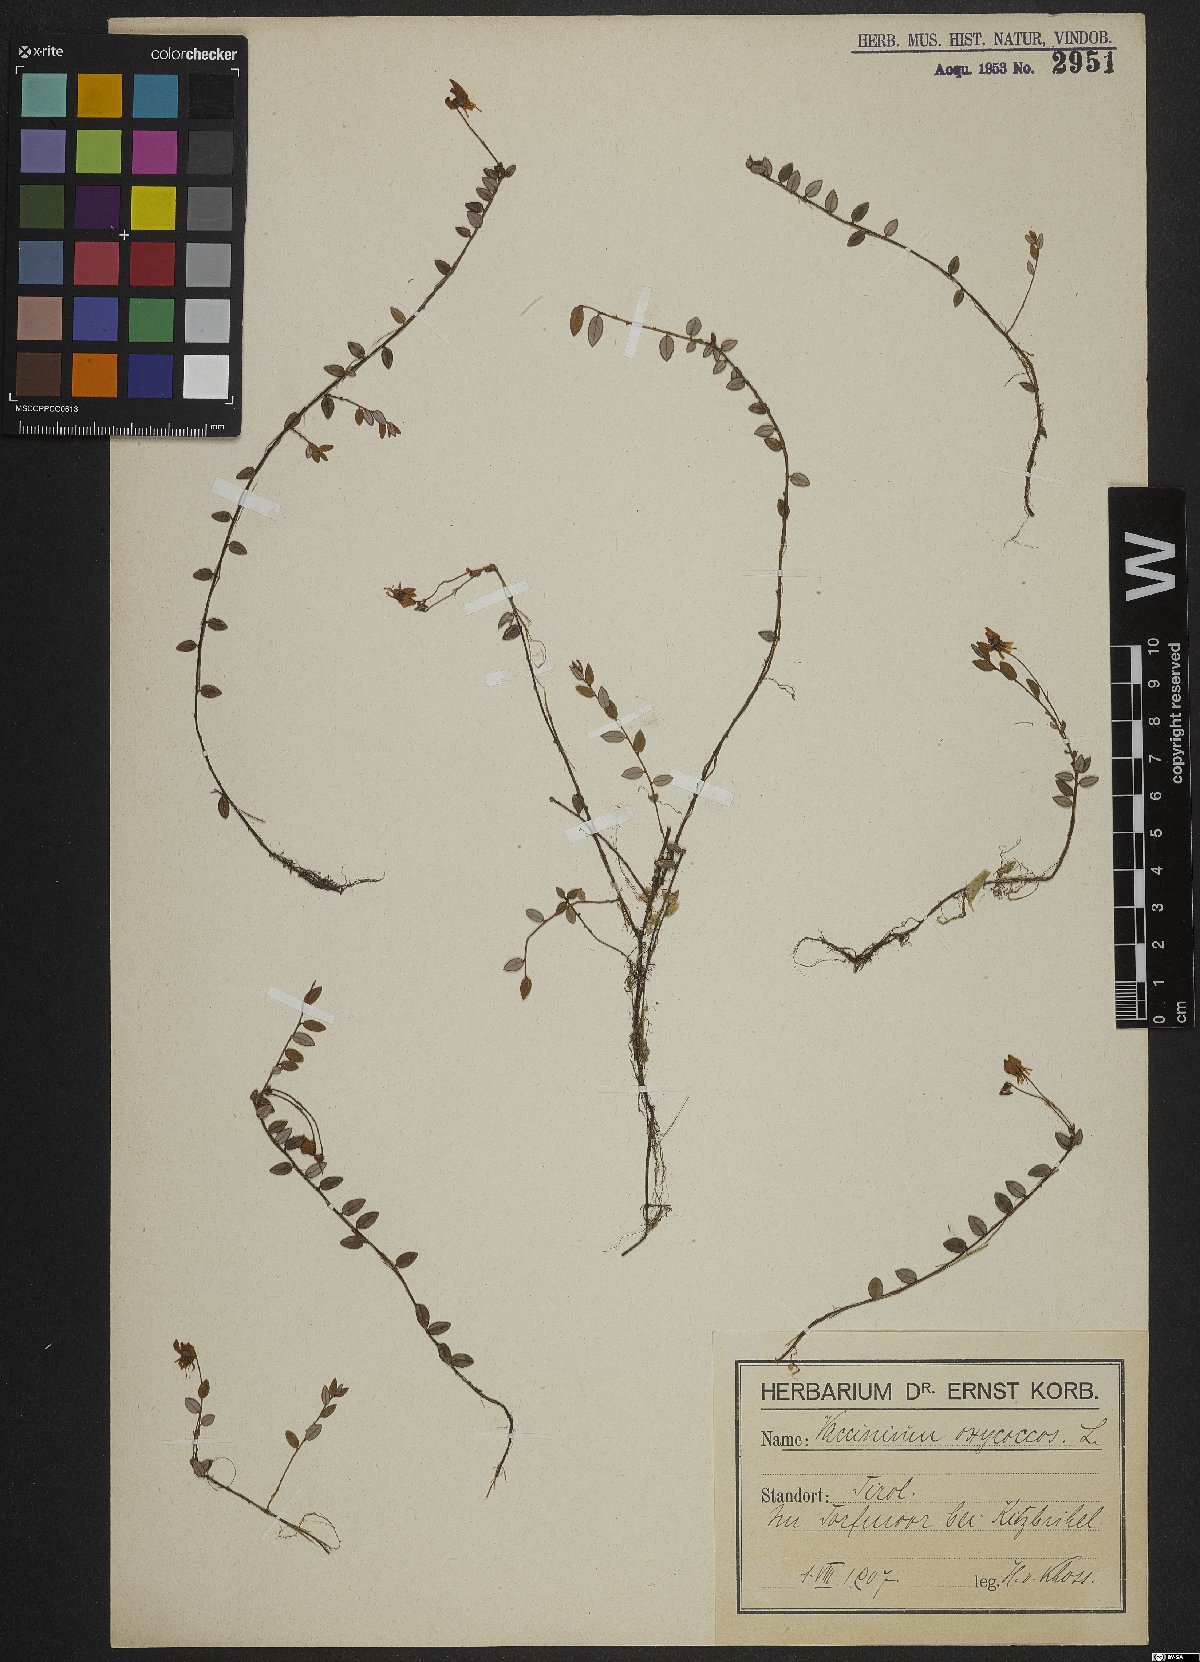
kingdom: Plantae
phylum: Tracheophyta
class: Magnoliopsida
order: Ericales
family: Ericaceae
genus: Vaccinium
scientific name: Vaccinium oxycoccos
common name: Cranberry
